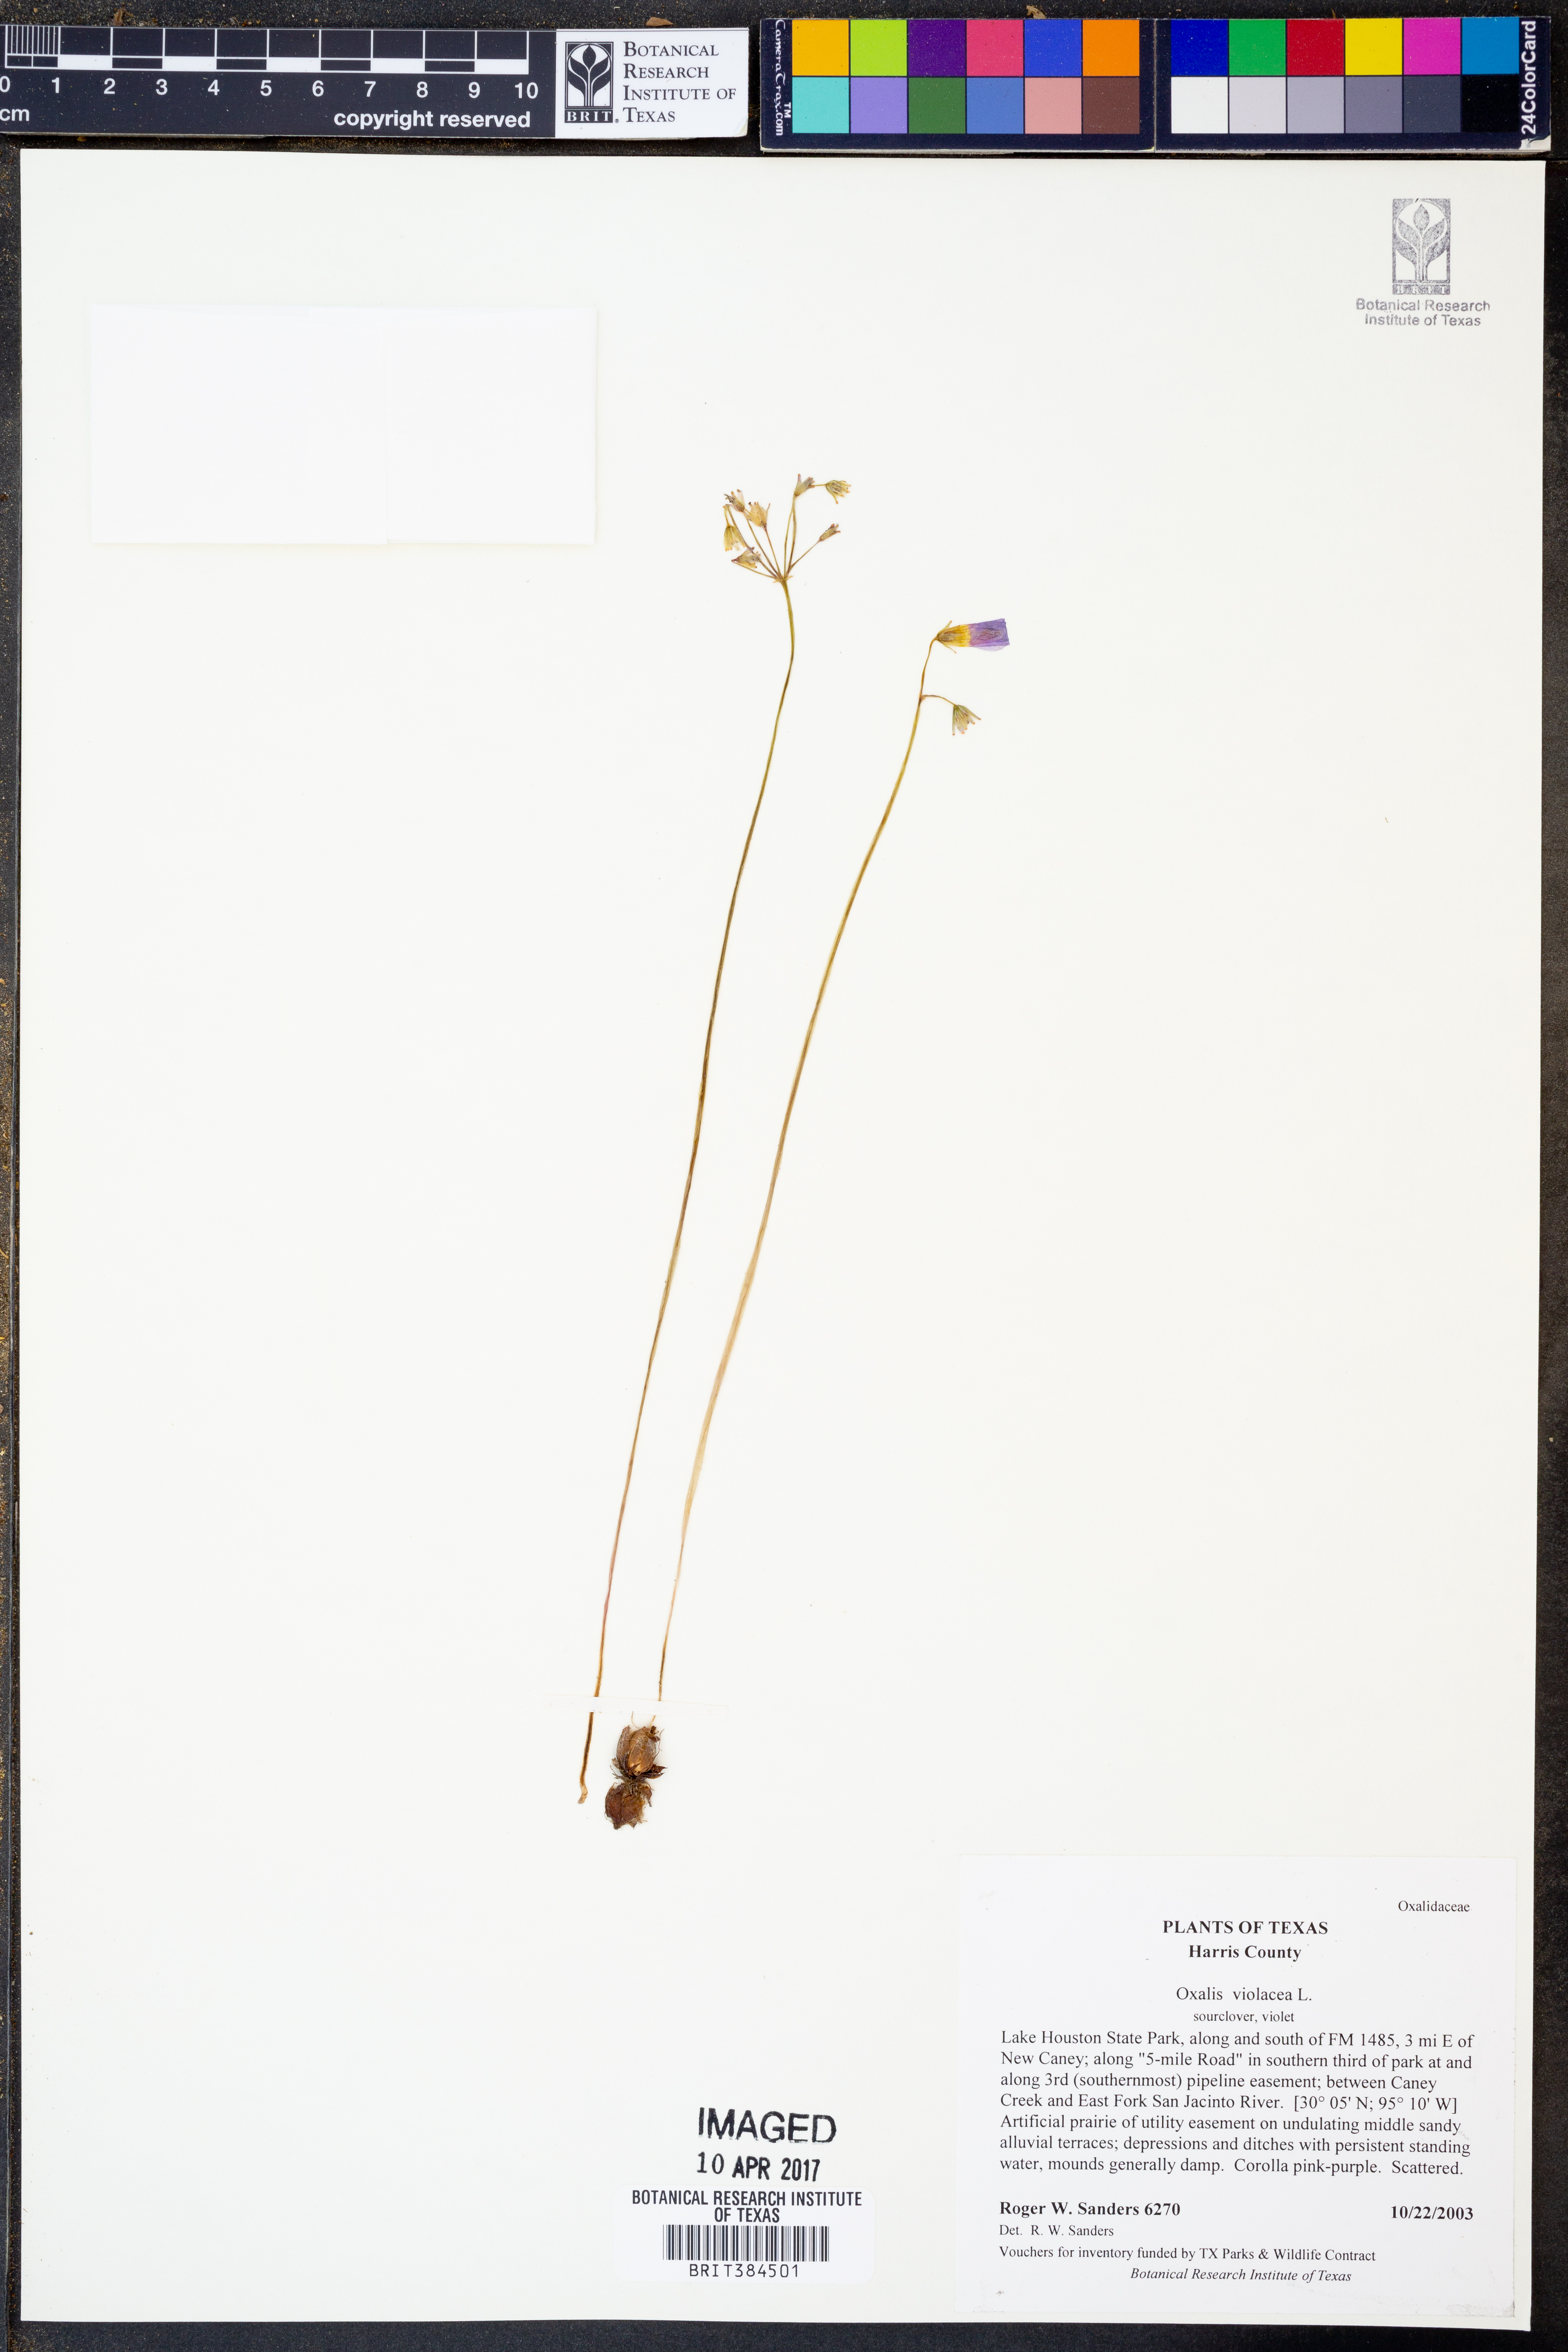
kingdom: Plantae
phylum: Tracheophyta
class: Magnoliopsida
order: Oxalidales
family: Oxalidaceae
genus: Oxalis
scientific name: Oxalis violacea
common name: Violet wood-sorrel
